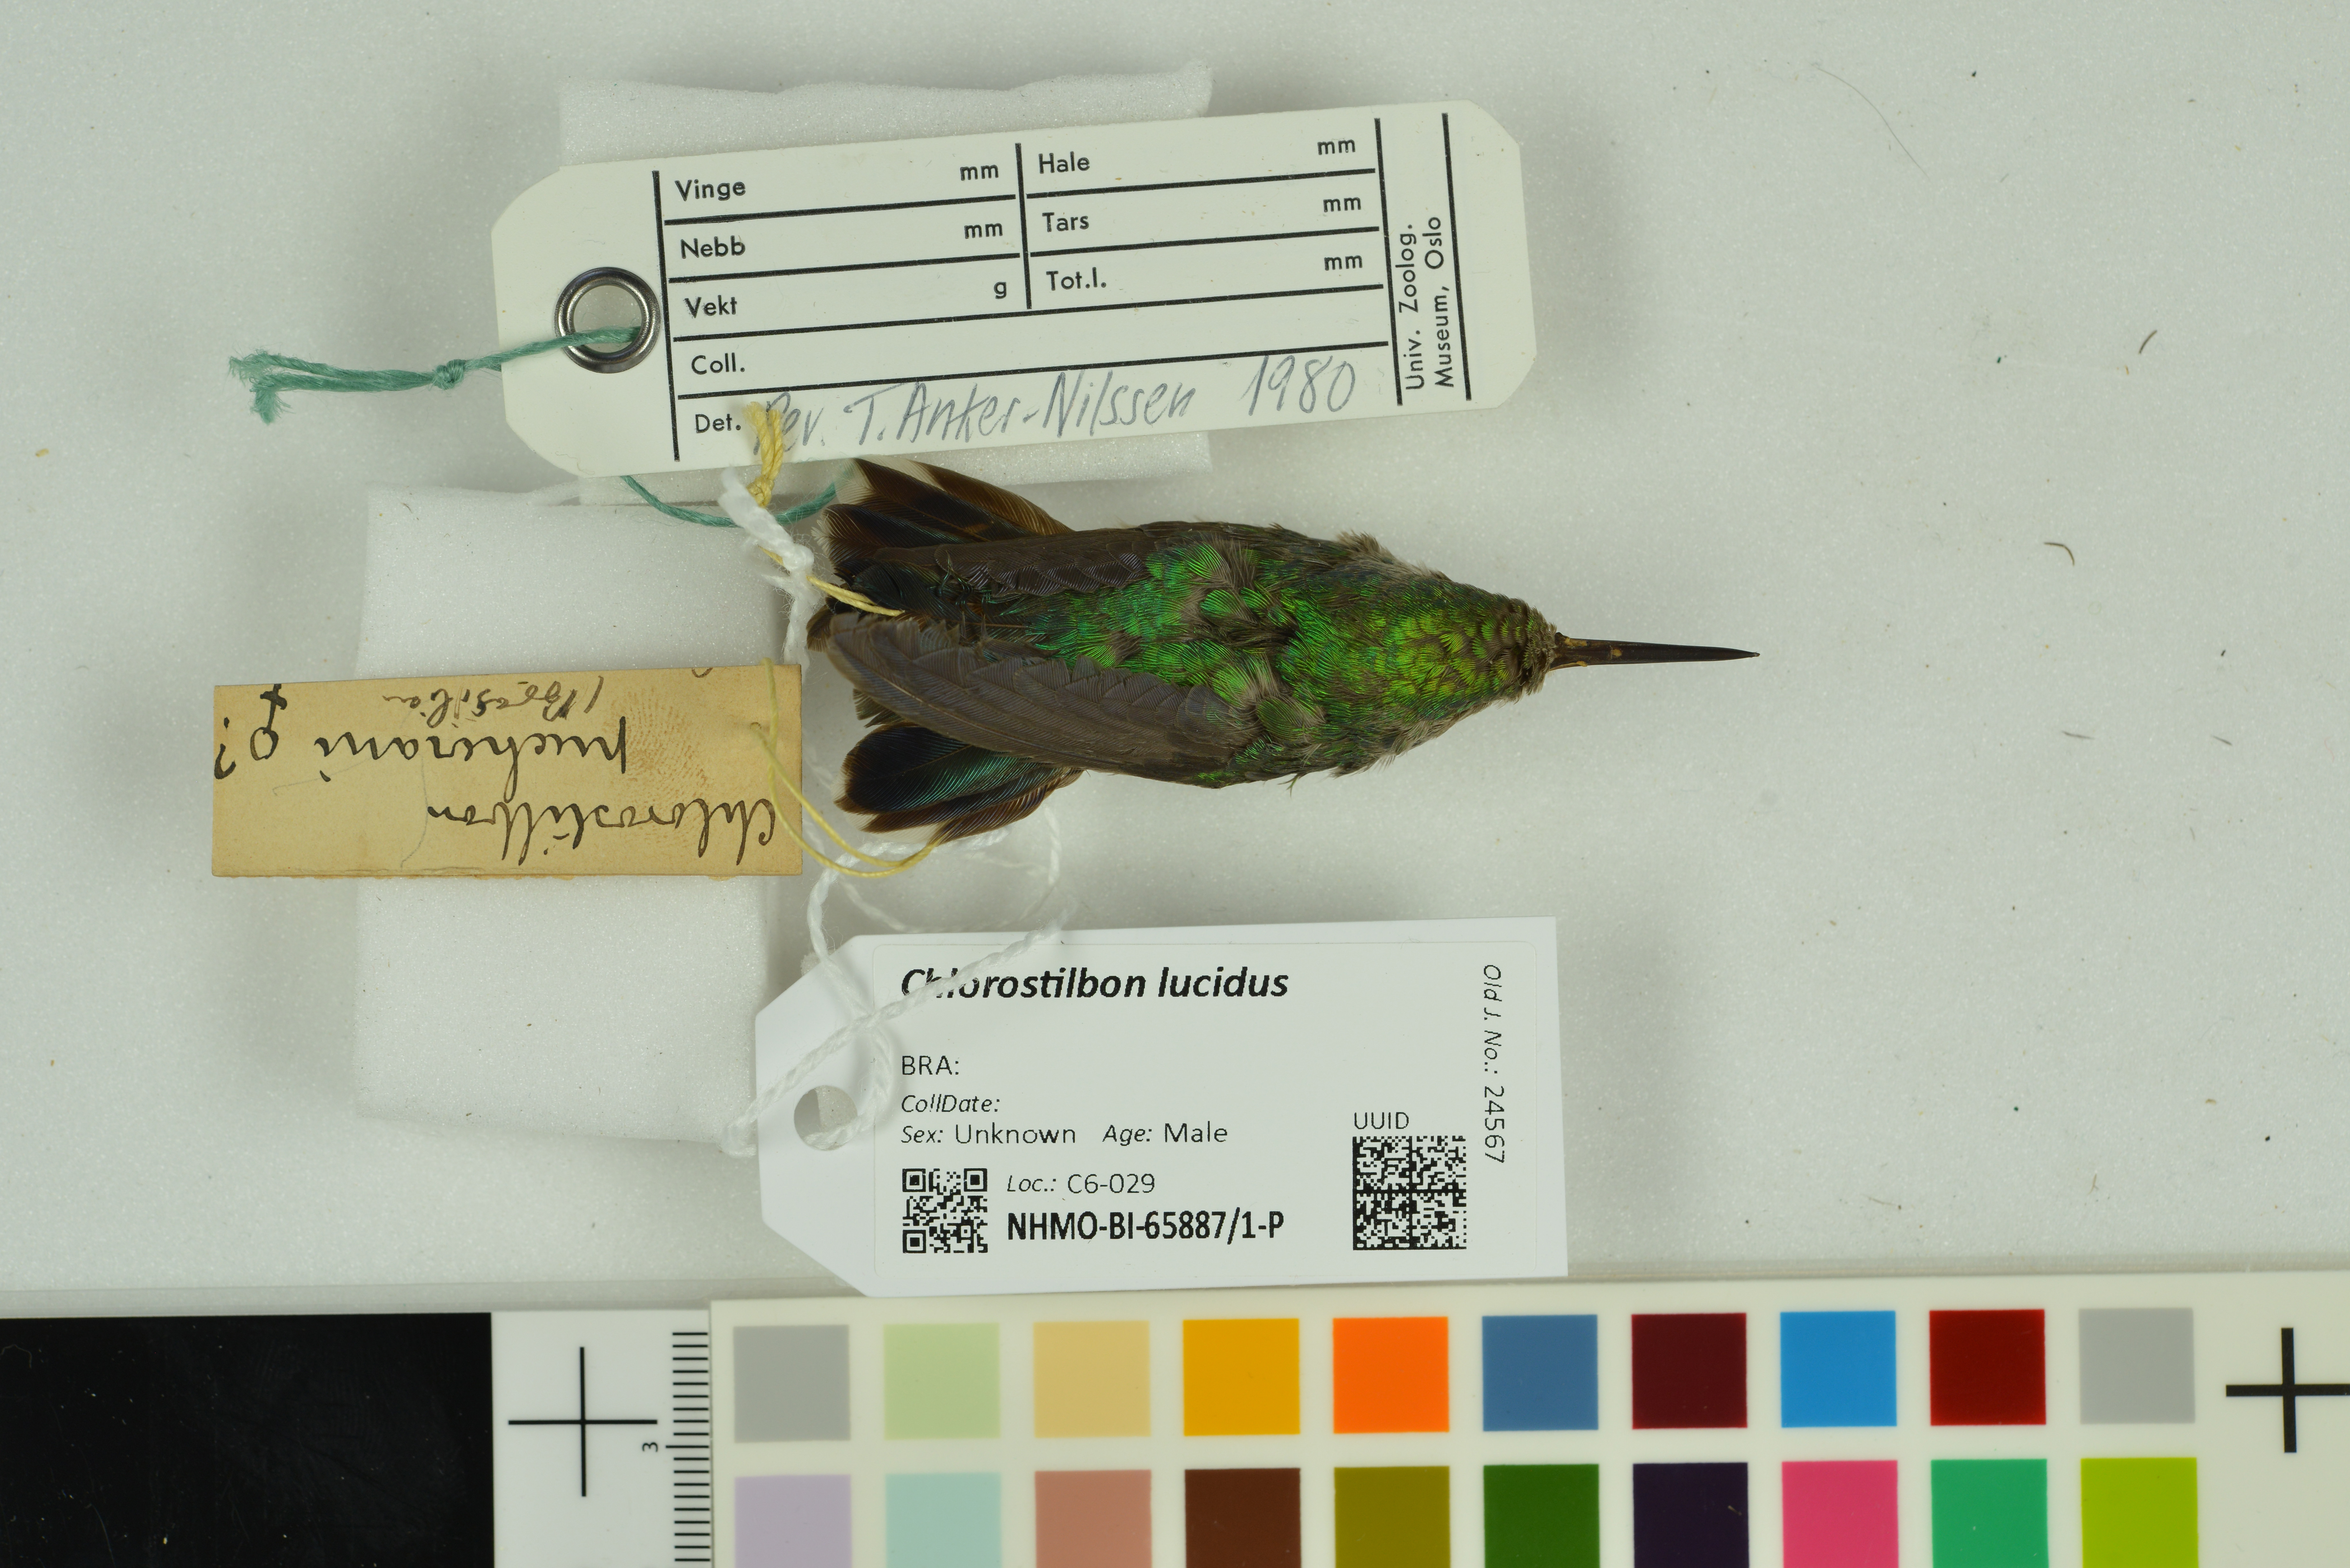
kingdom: Animalia
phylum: Chordata
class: Aves
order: Apodiformes
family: Trochilidae
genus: Chlorostilbon
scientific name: Chlorostilbon lucidus
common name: Glittering-bellied emerald
